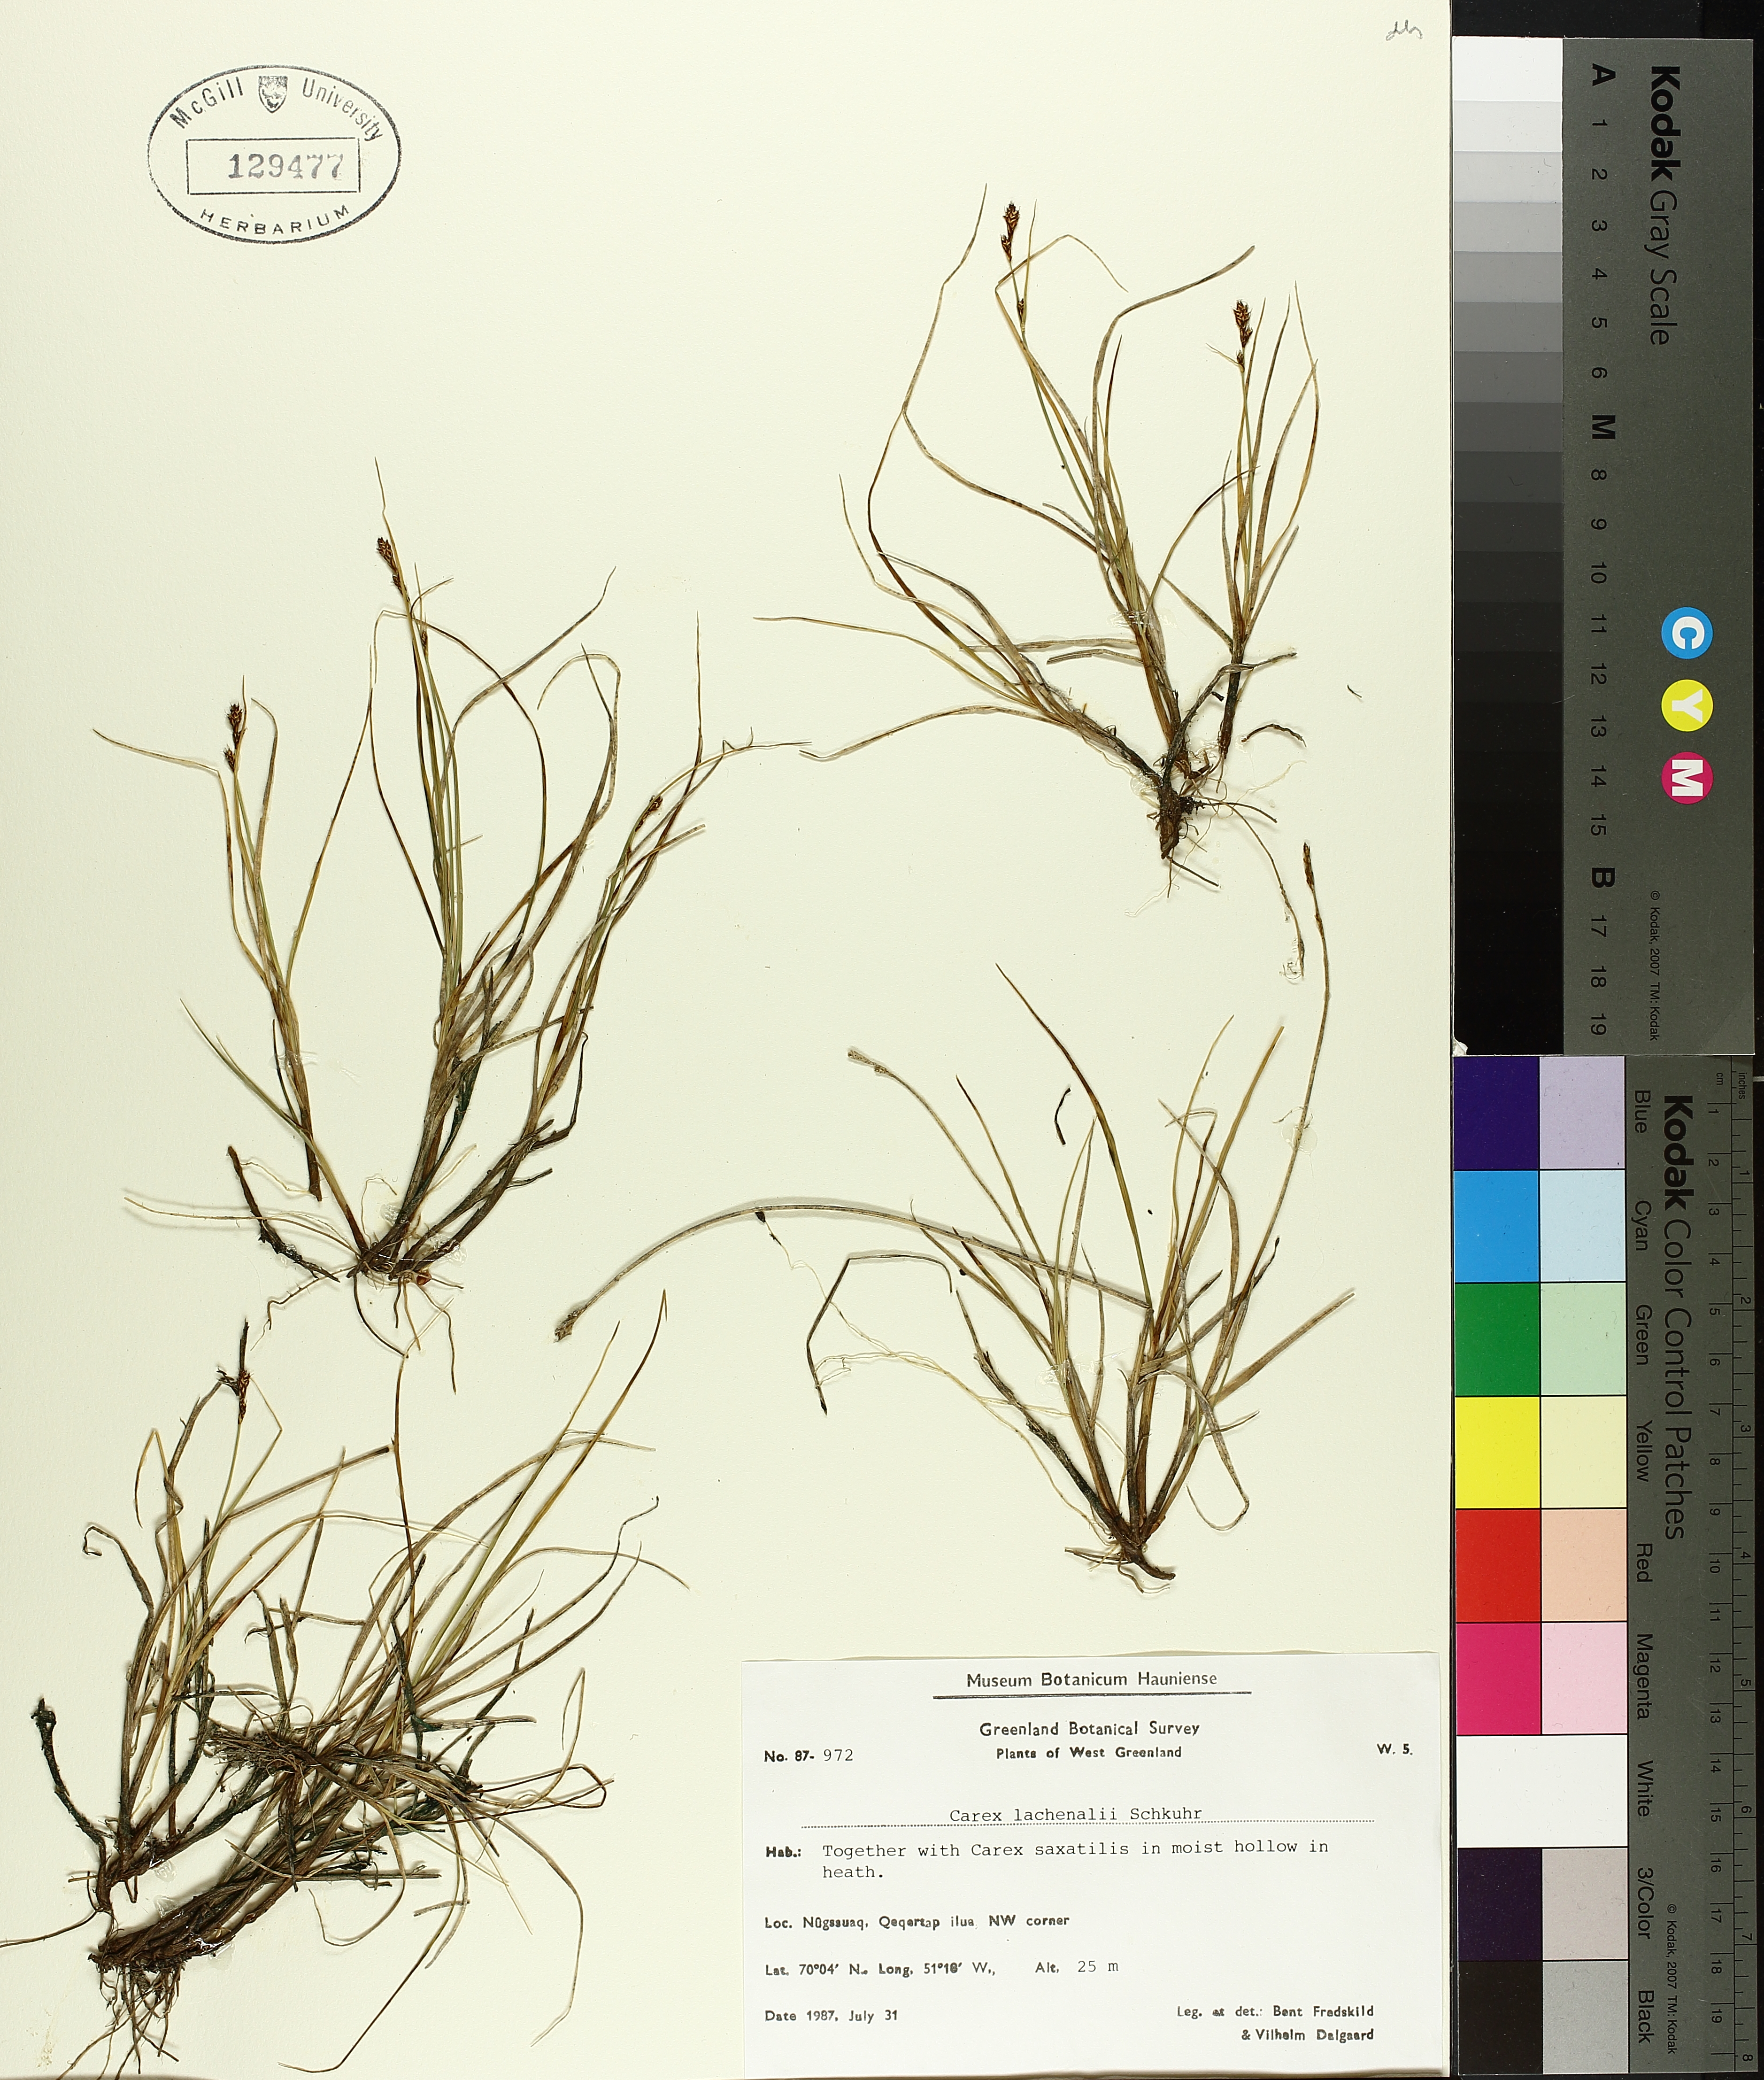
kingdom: Plantae
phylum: Tracheophyta
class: Liliopsida
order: Poales
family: Cyperaceae
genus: Carex
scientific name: Carex lachenalii
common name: Hare's-foot sedge
